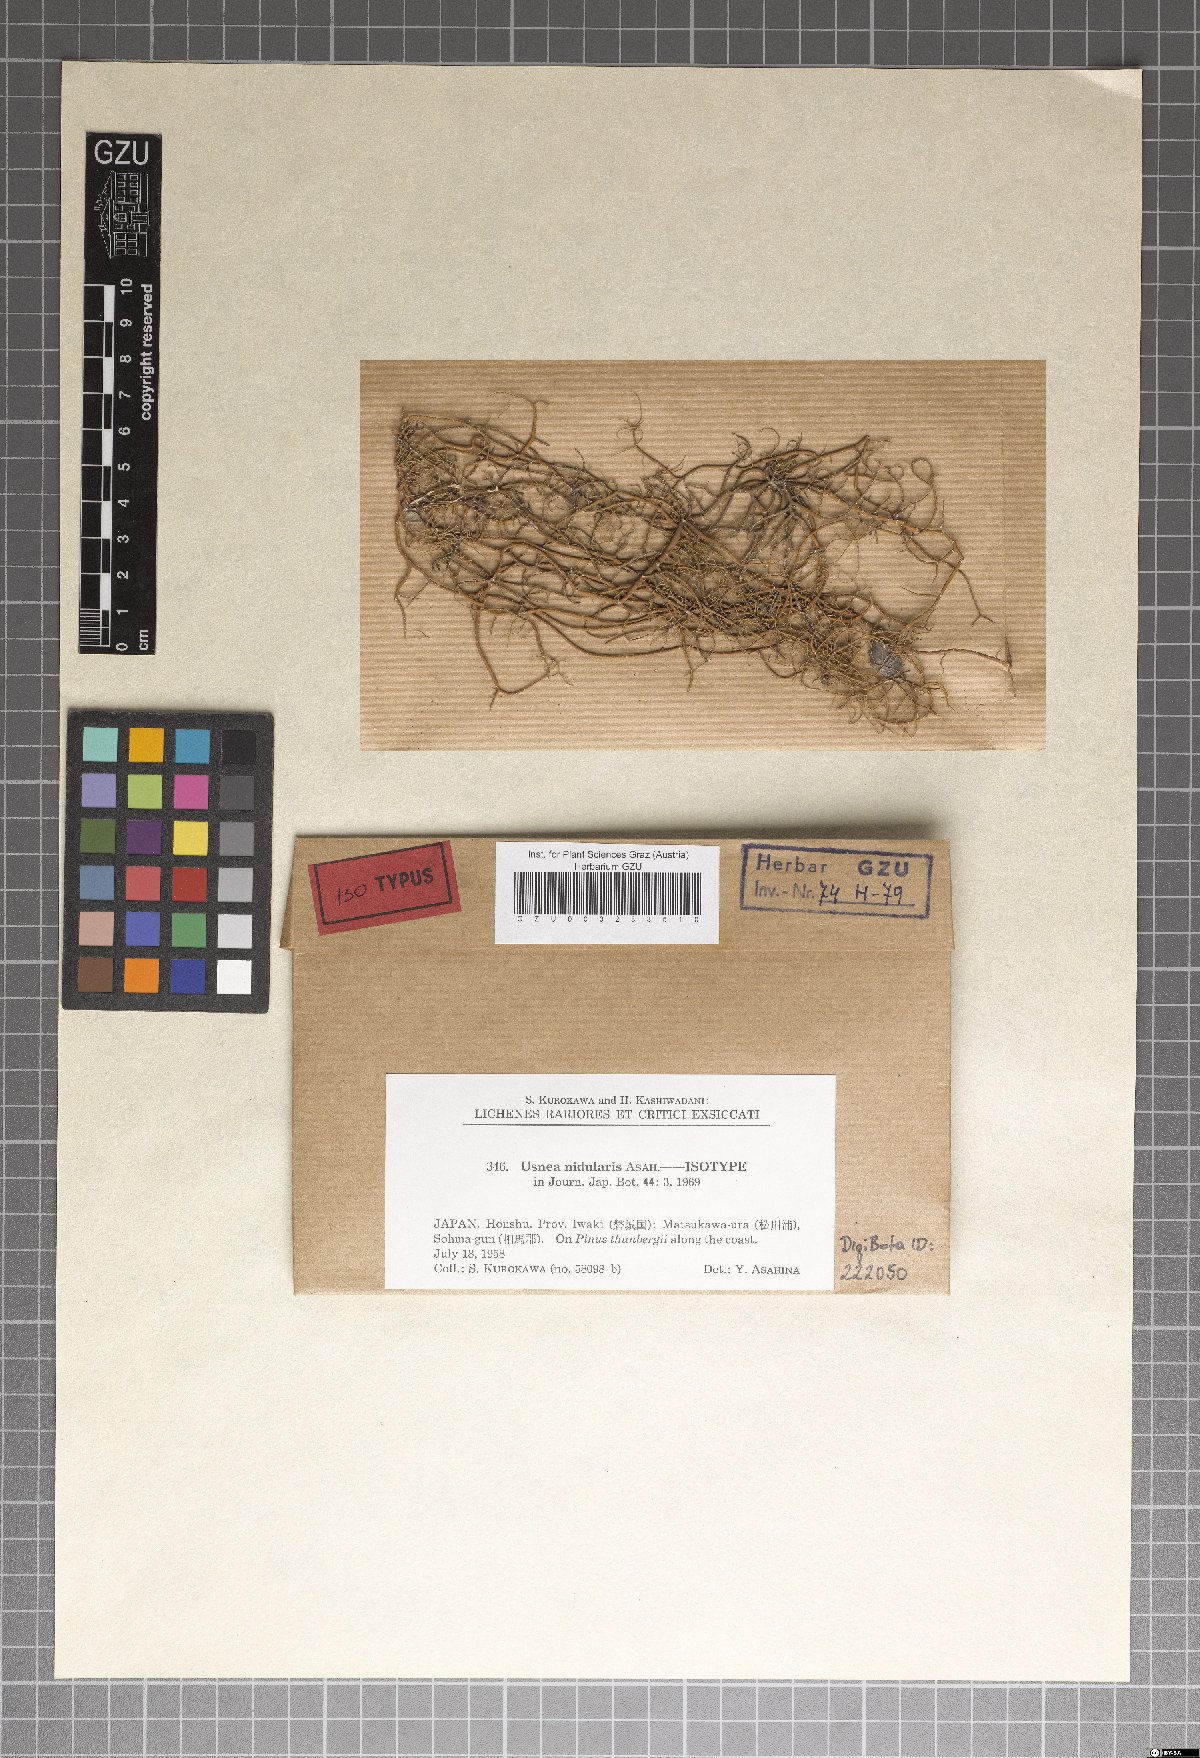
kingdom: Fungi
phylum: Ascomycota
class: Lecanoromycetes
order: Lecanorales
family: Parmeliaceae
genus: Usnea
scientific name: Usnea nidularis
